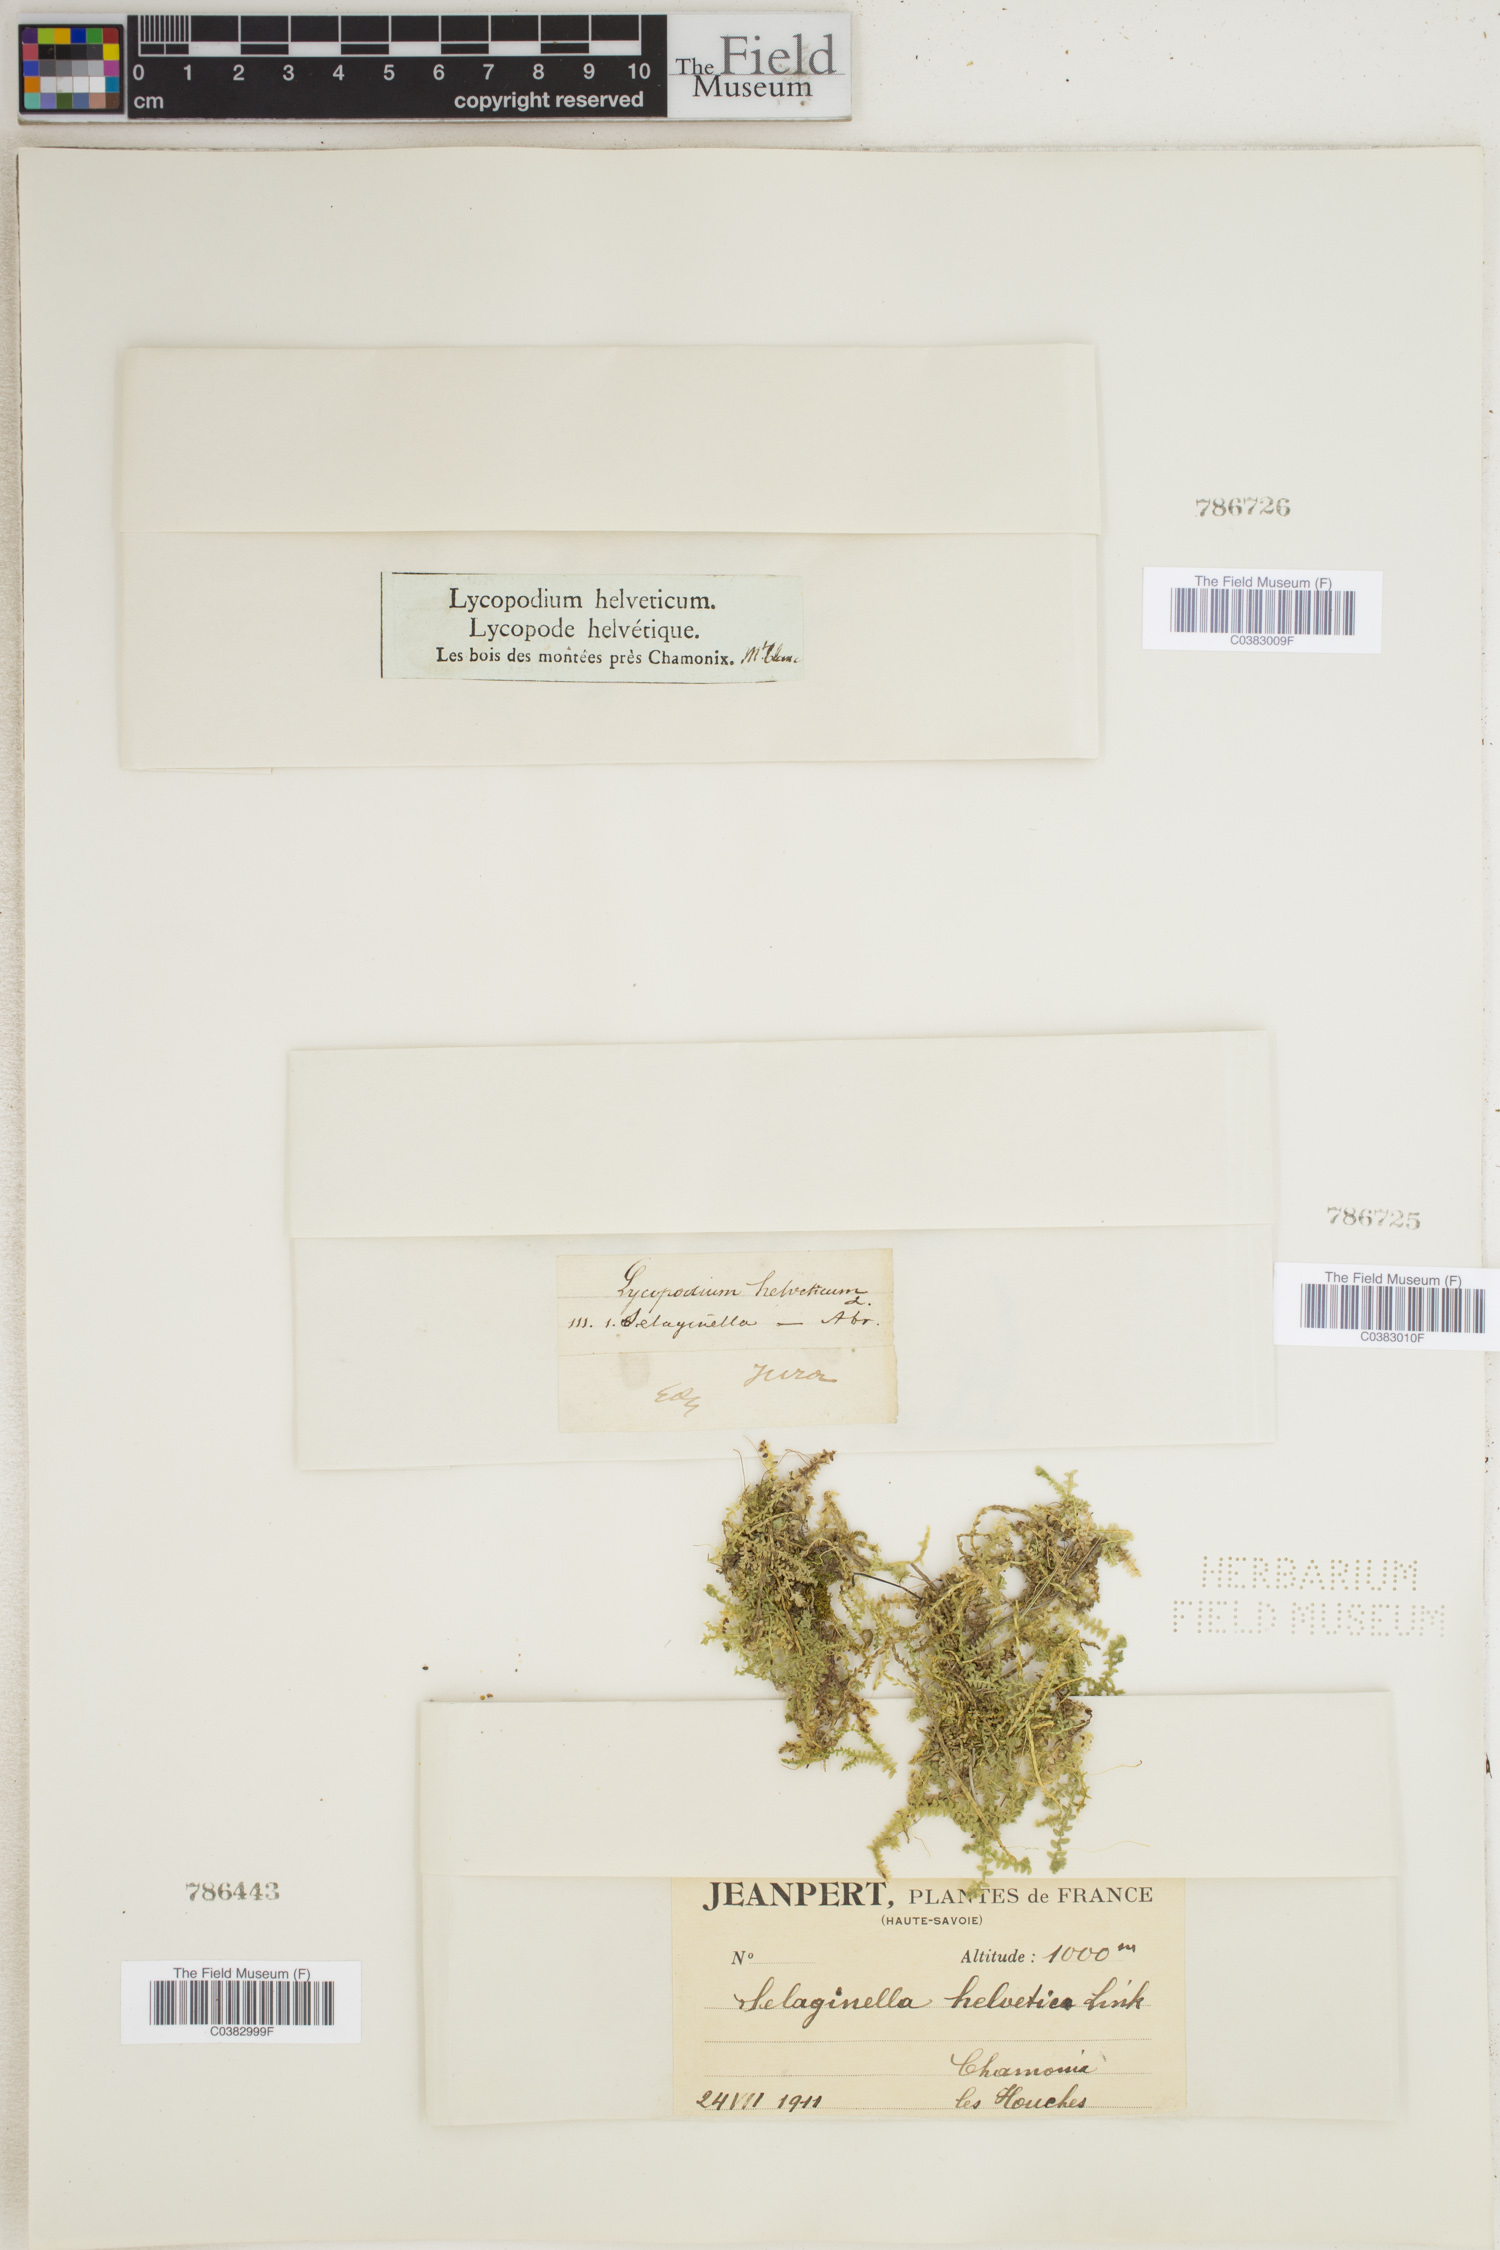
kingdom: Plantae
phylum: Tracheophyta
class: Lycopodiopsida
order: Selaginellales
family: Selaginellaceae
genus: Selaginella
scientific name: Selaginella helvetica
